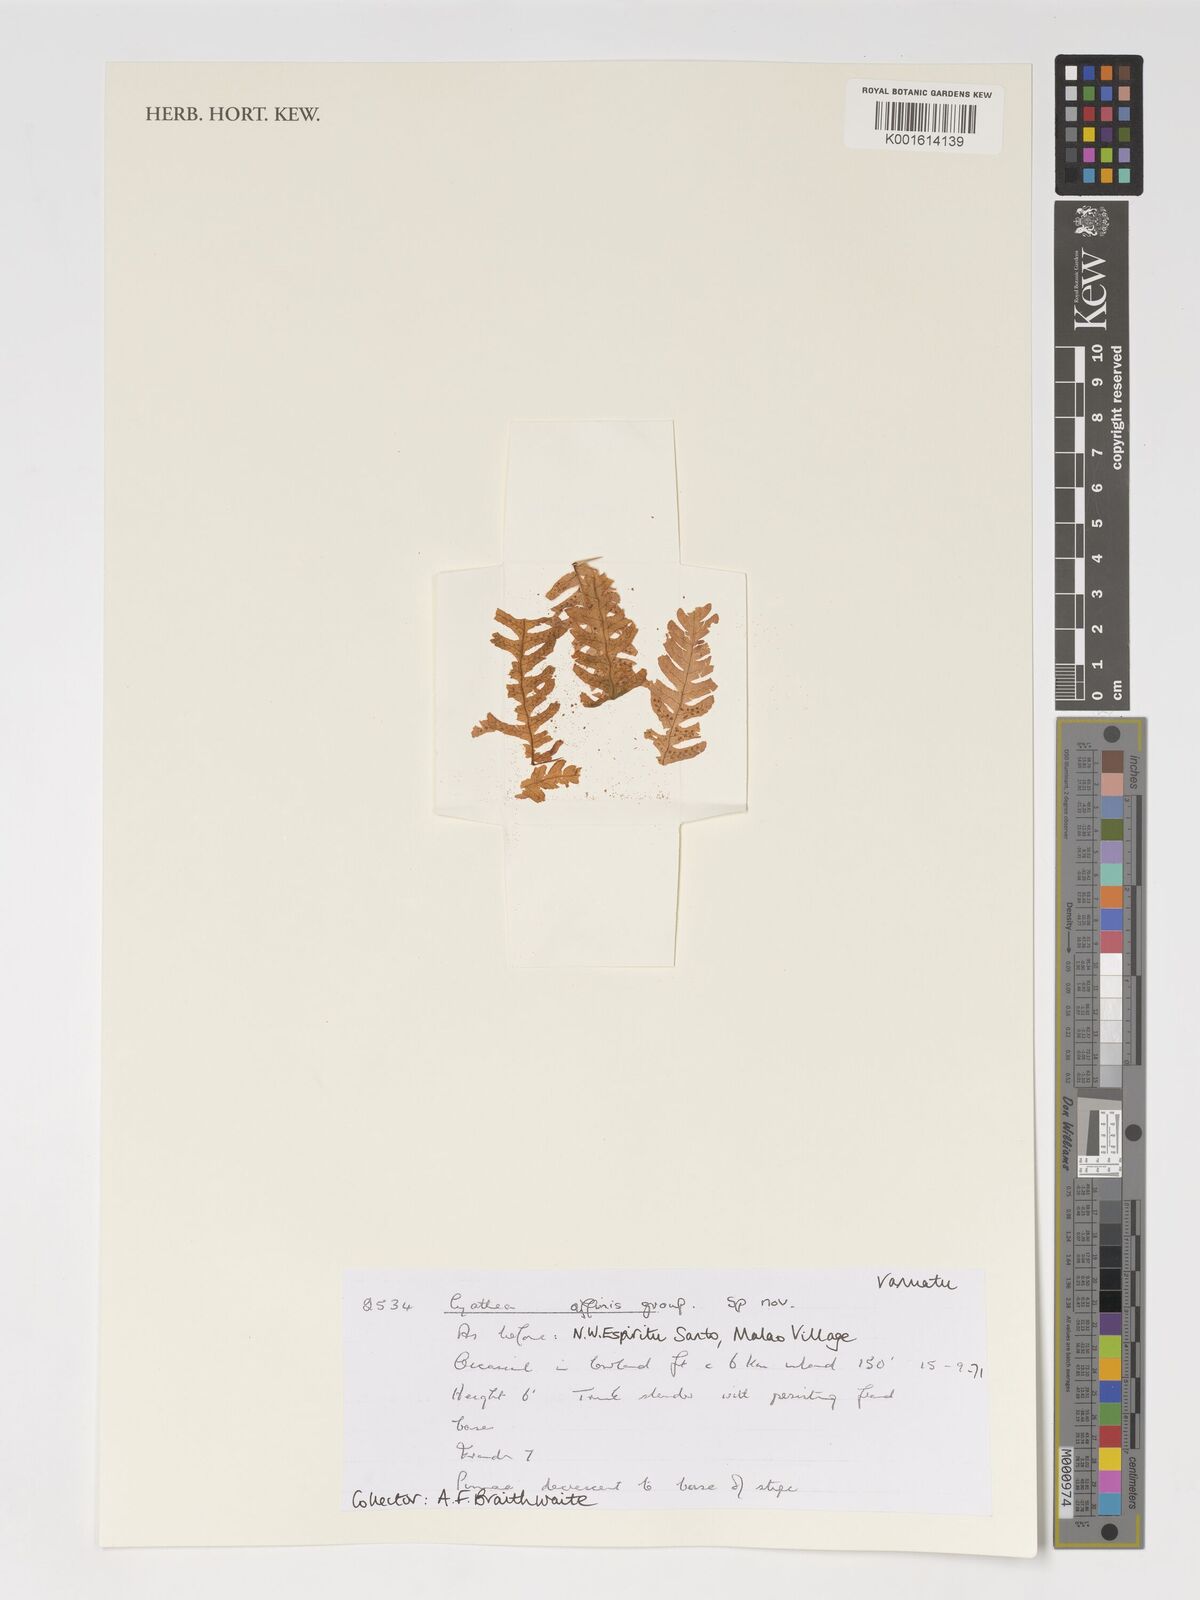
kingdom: Plantae
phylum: Tracheophyta
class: Polypodiopsida
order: Cyatheales
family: Cyatheaceae
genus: Cyathea
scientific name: Cyathea
